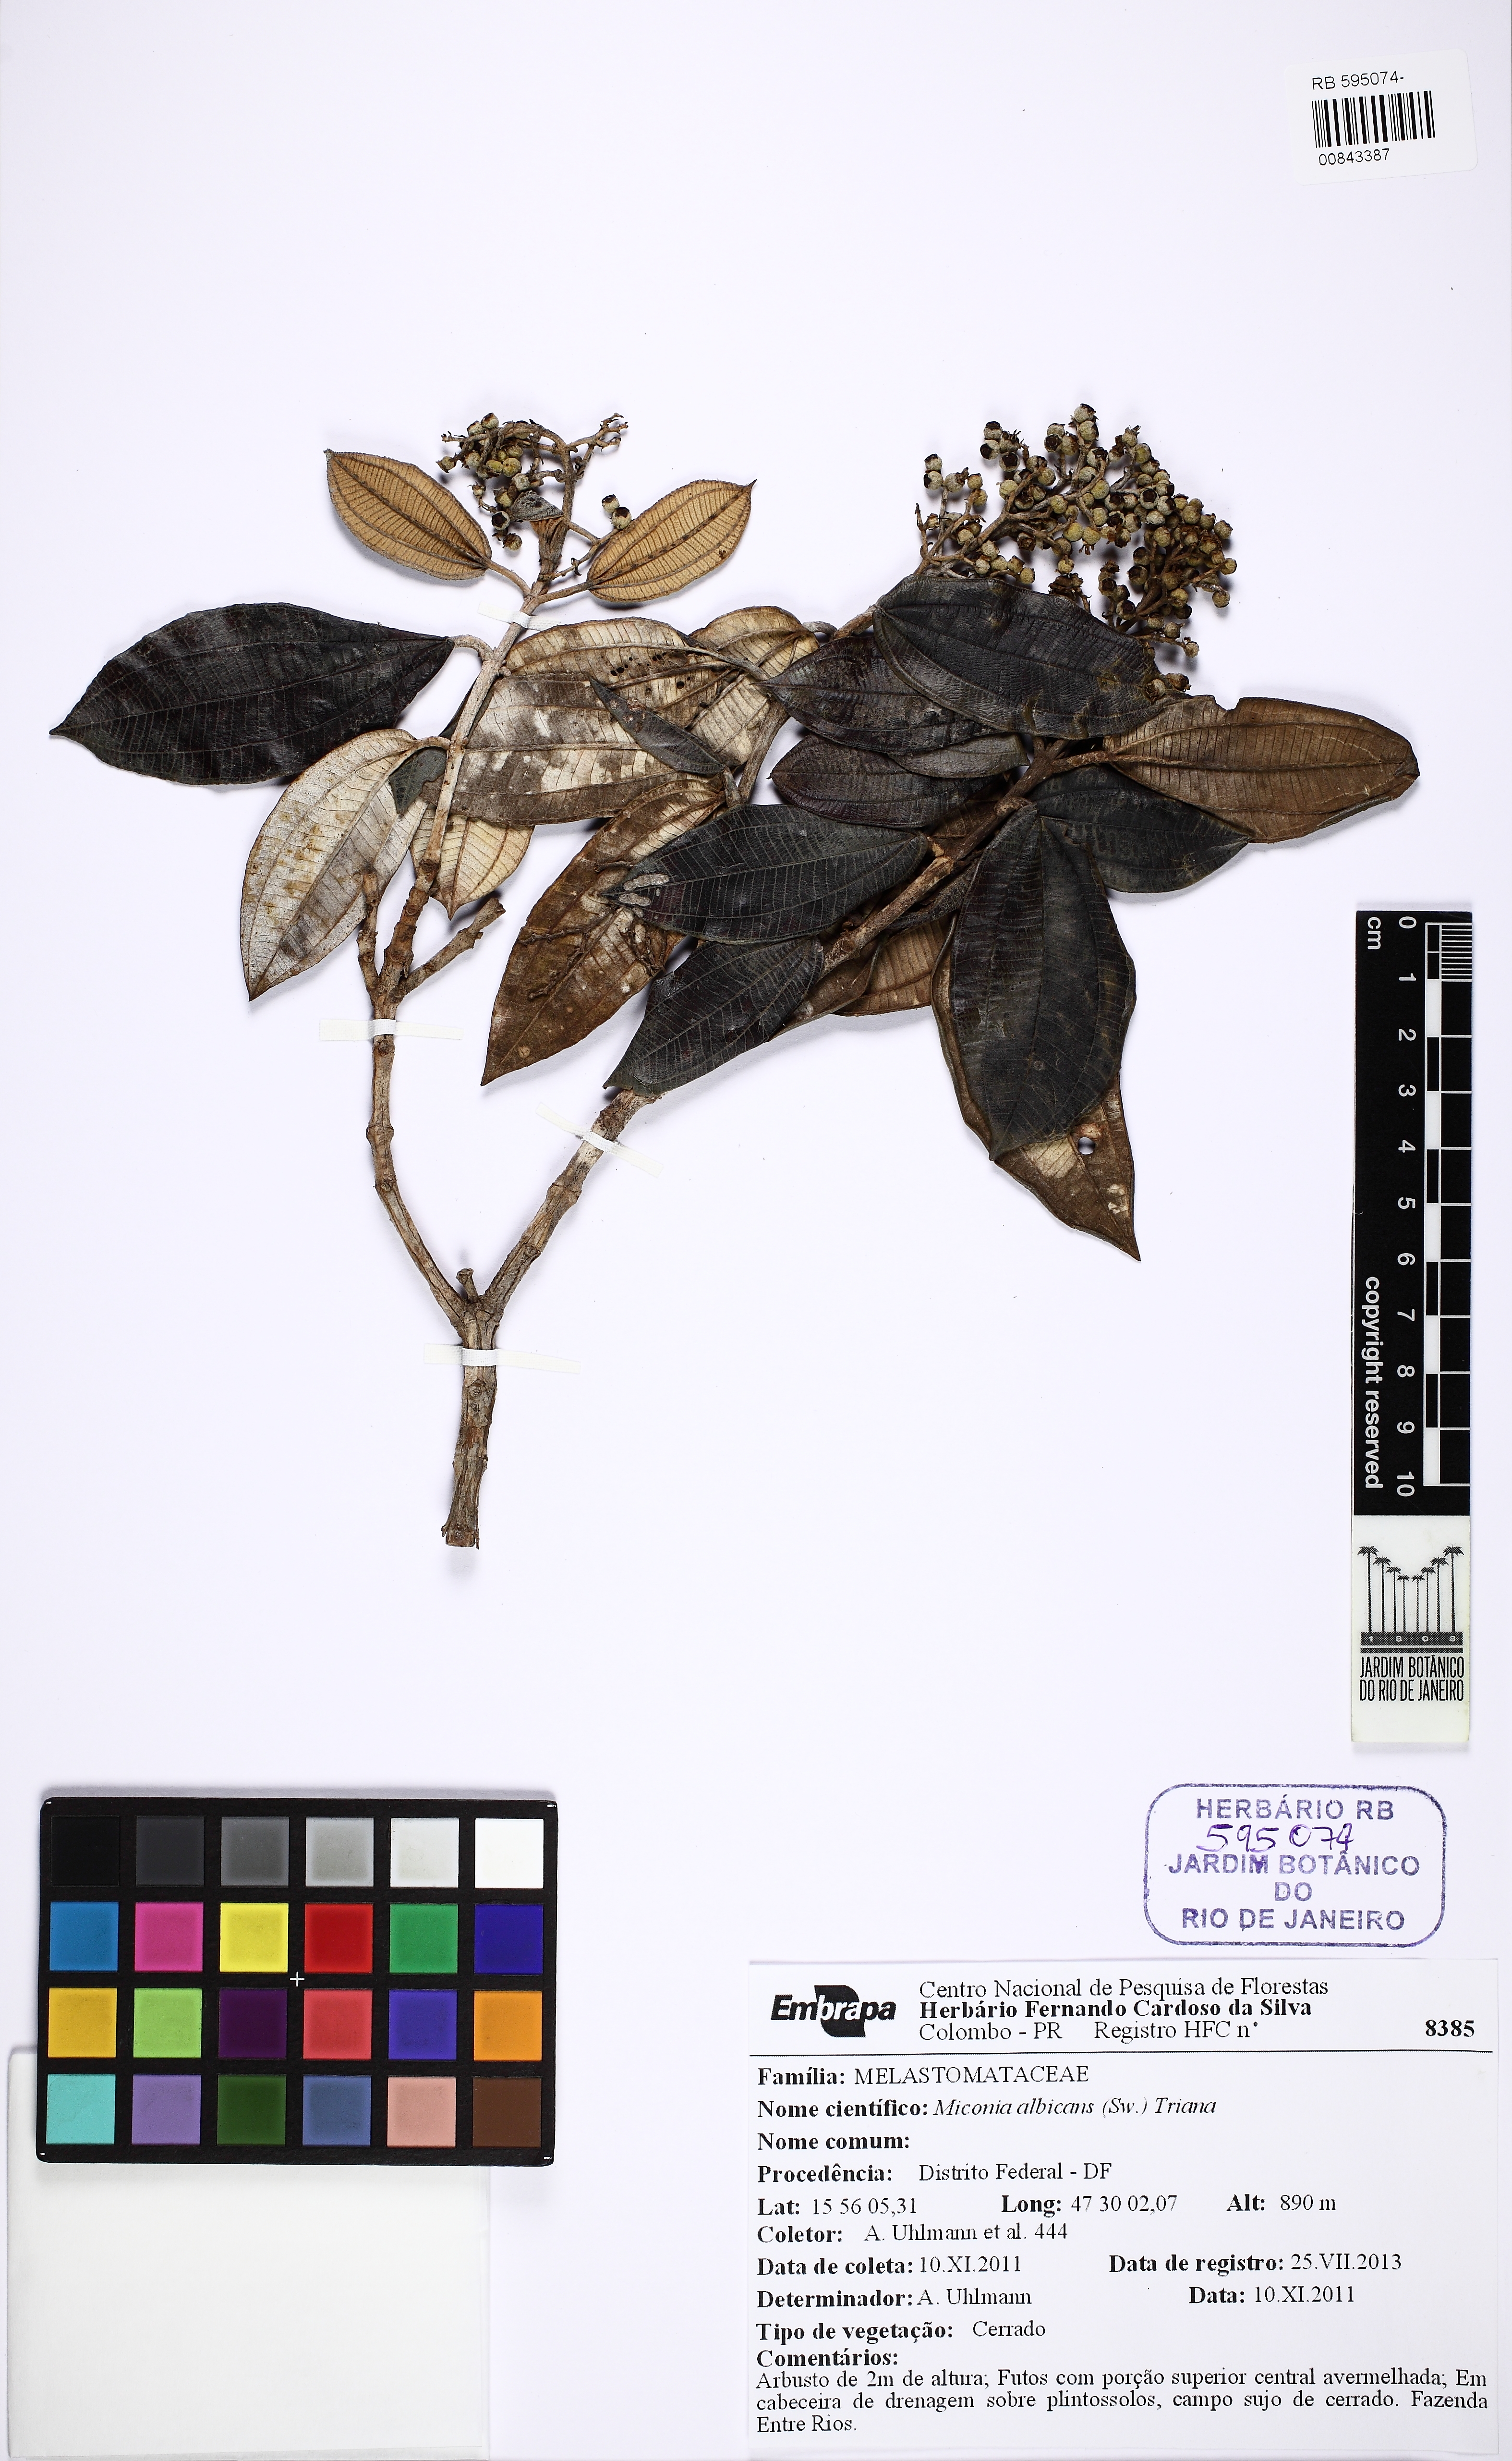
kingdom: Plantae
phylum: Tracheophyta
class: Magnoliopsida
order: Myrtales
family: Melastomataceae
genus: Miconia
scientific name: Miconia albicans
